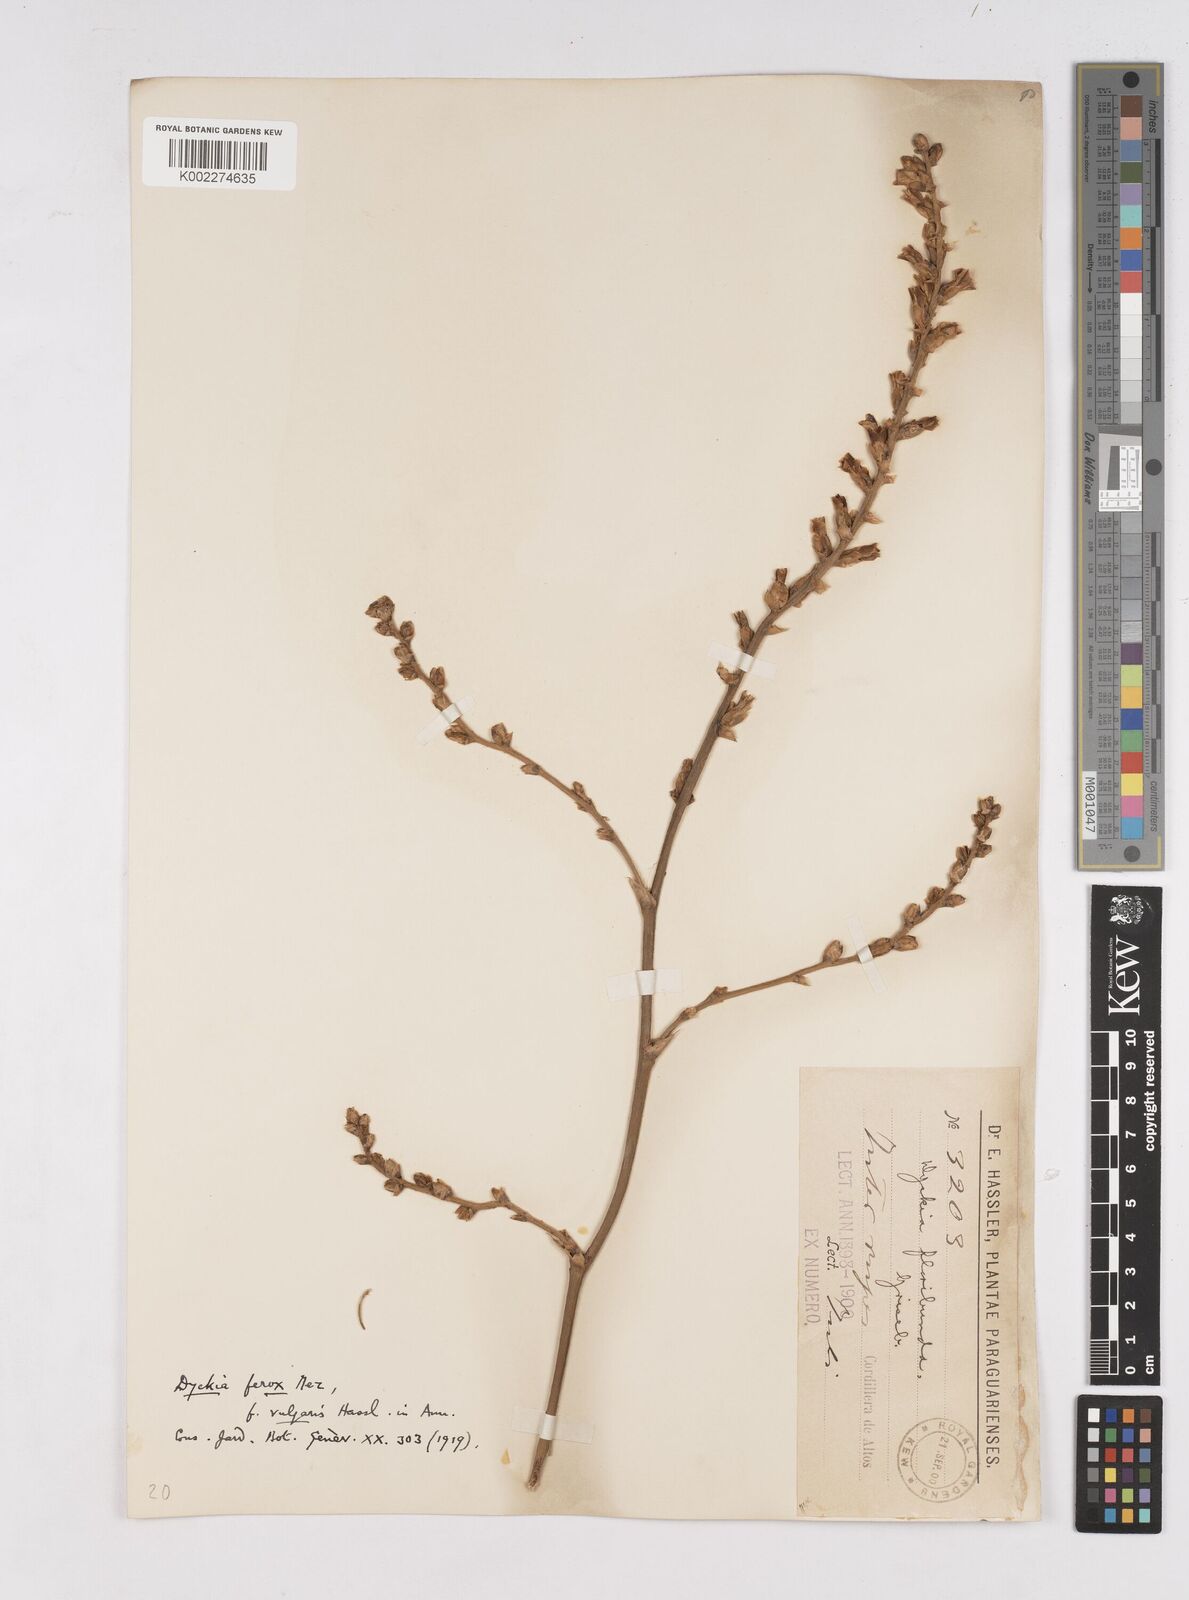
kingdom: Plantae
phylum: Tracheophyta
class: Liliopsida
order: Poales
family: Bromeliaceae
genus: Dyckia
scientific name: Dyckia ferox
